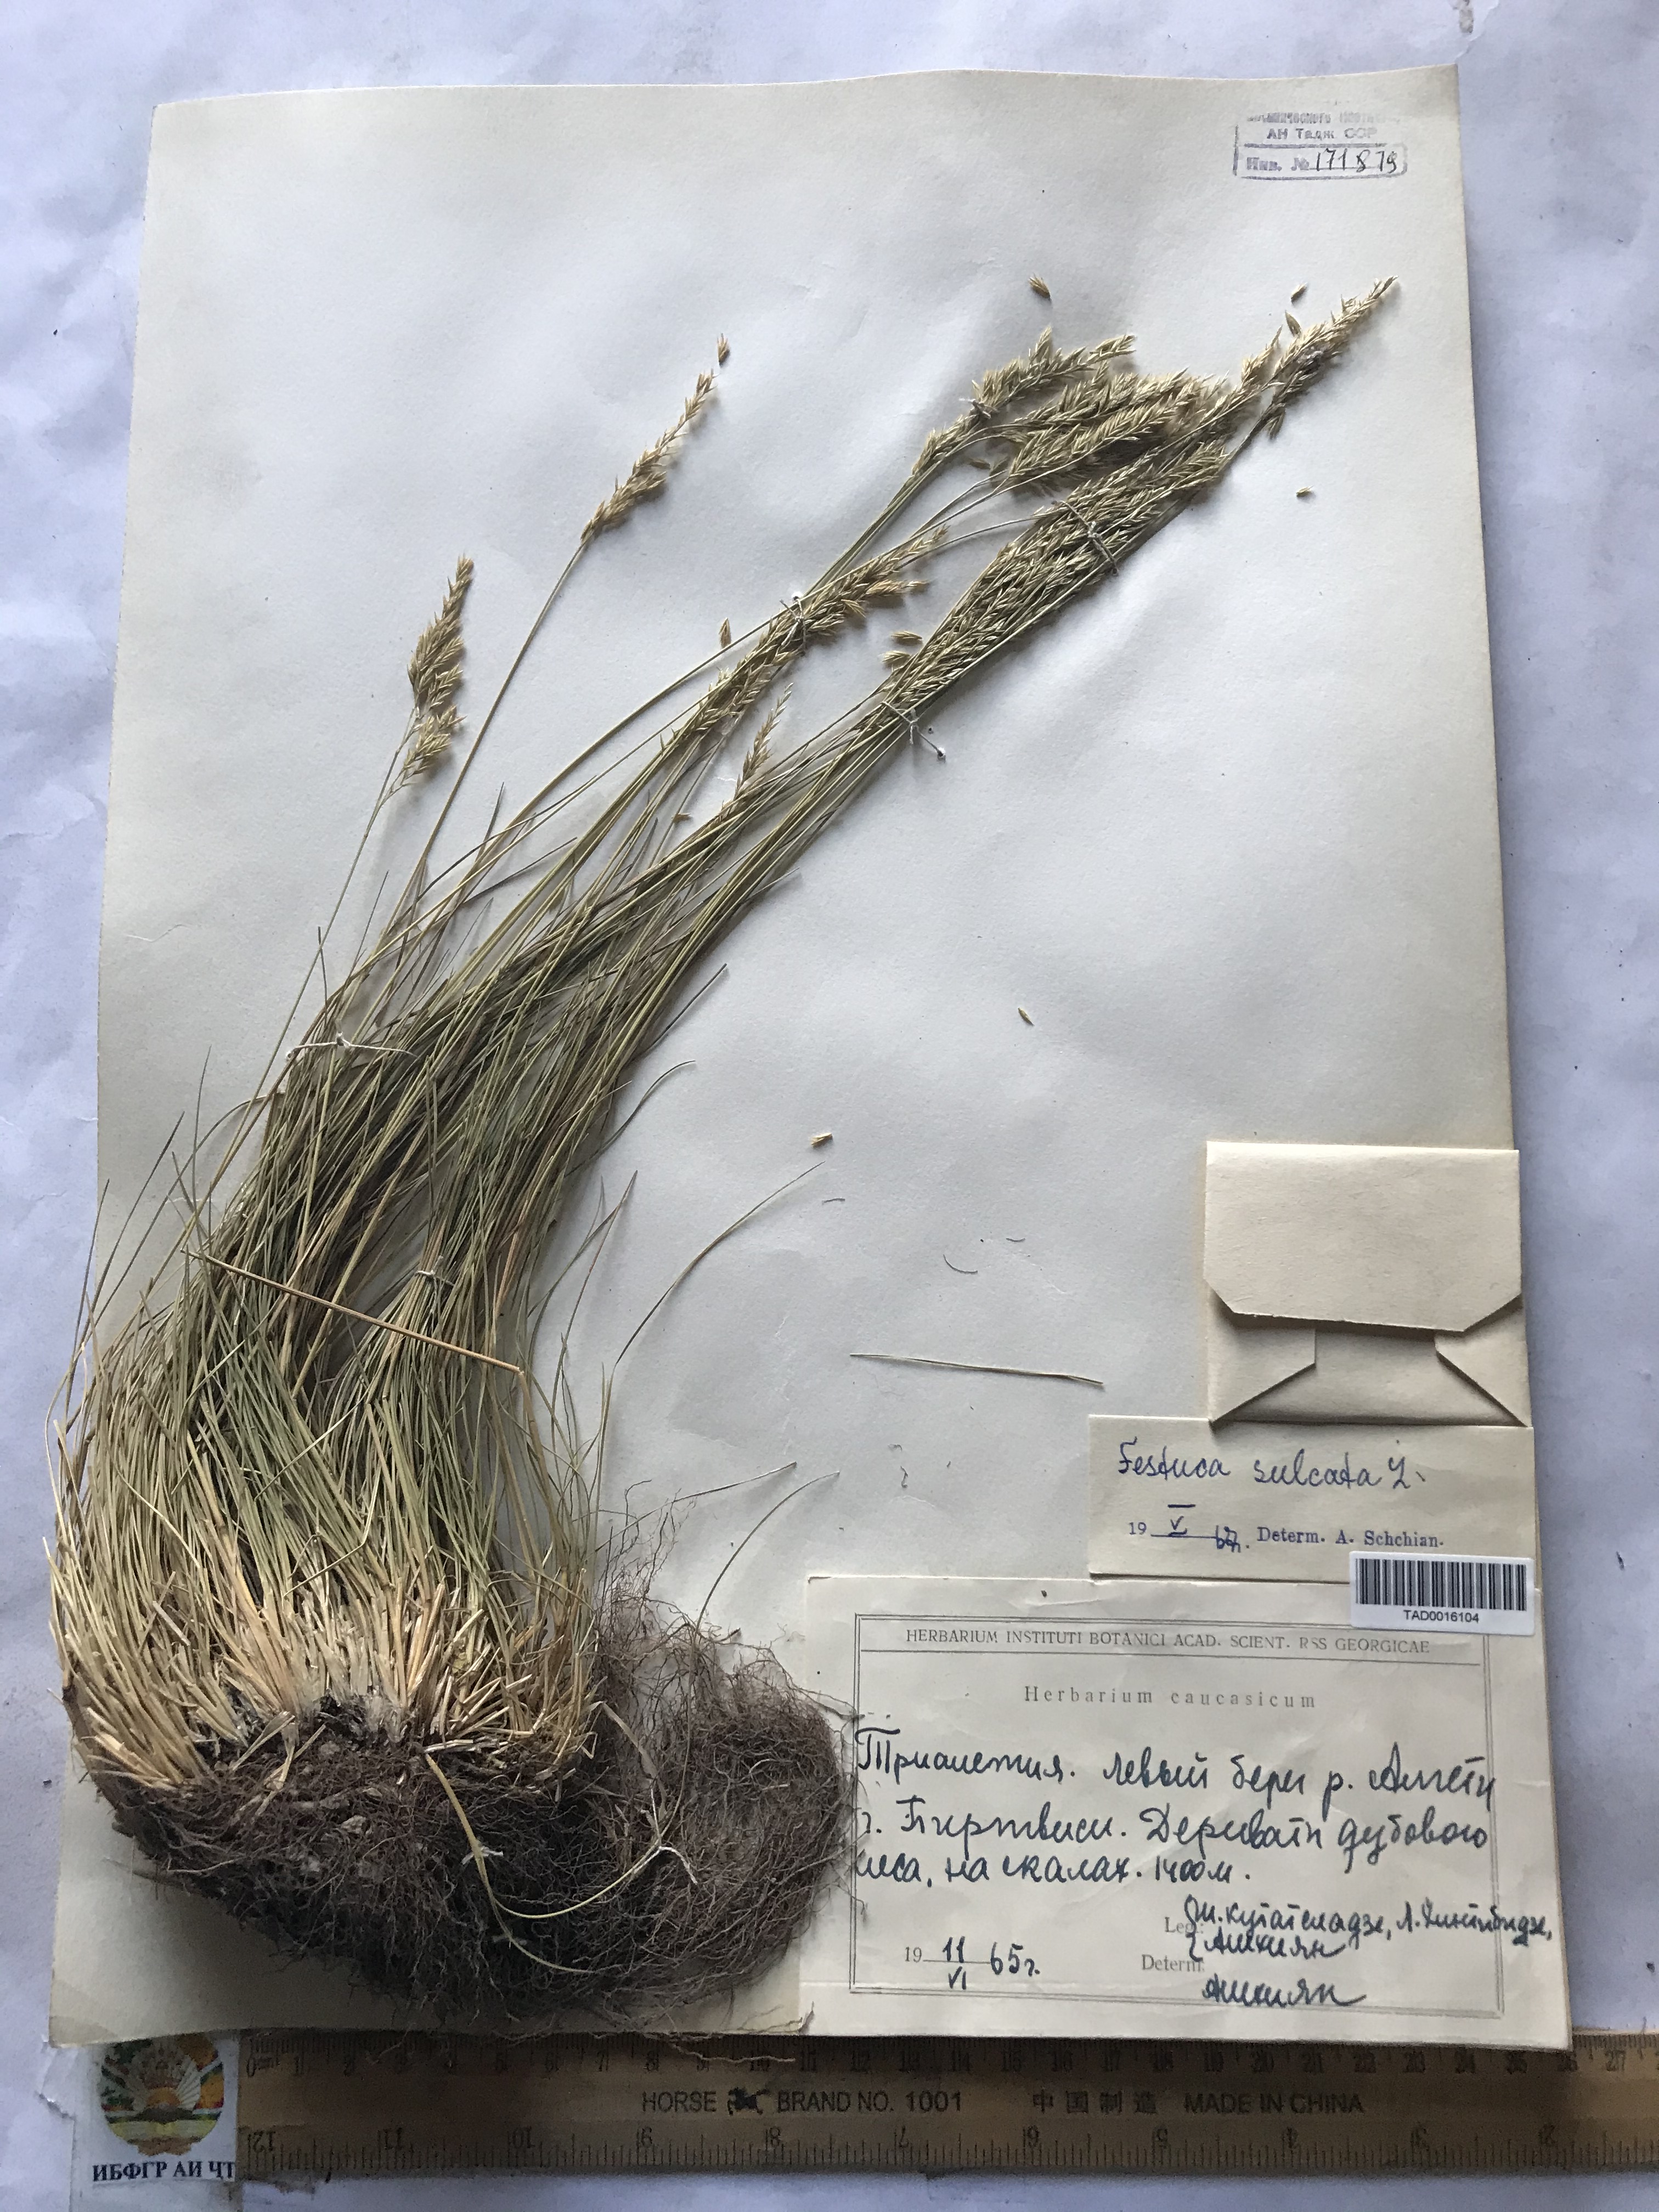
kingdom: Plantae
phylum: Tracheophyta
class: Liliopsida
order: Poales
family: Poaceae
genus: Festuca
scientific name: Festuca sulcata
